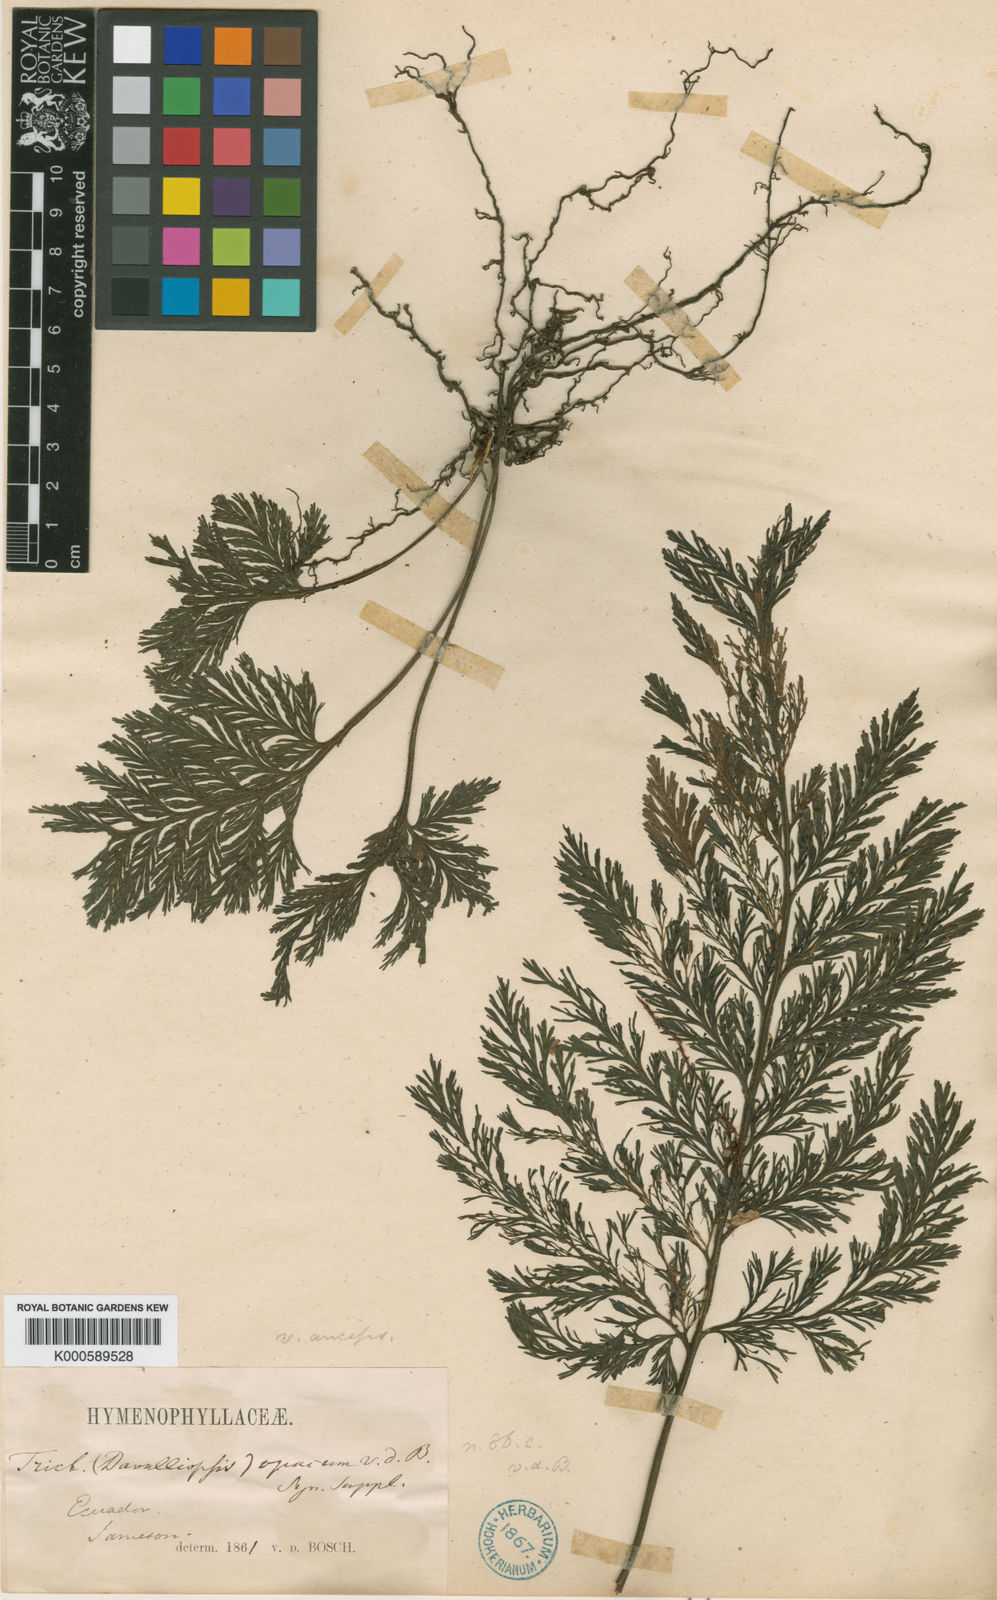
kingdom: Plantae
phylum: Tracheophyta
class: Polypodiopsida
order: Hymenophyllales
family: Hymenophyllaceae
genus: Trichomanes
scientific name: Trichomanes elegans
